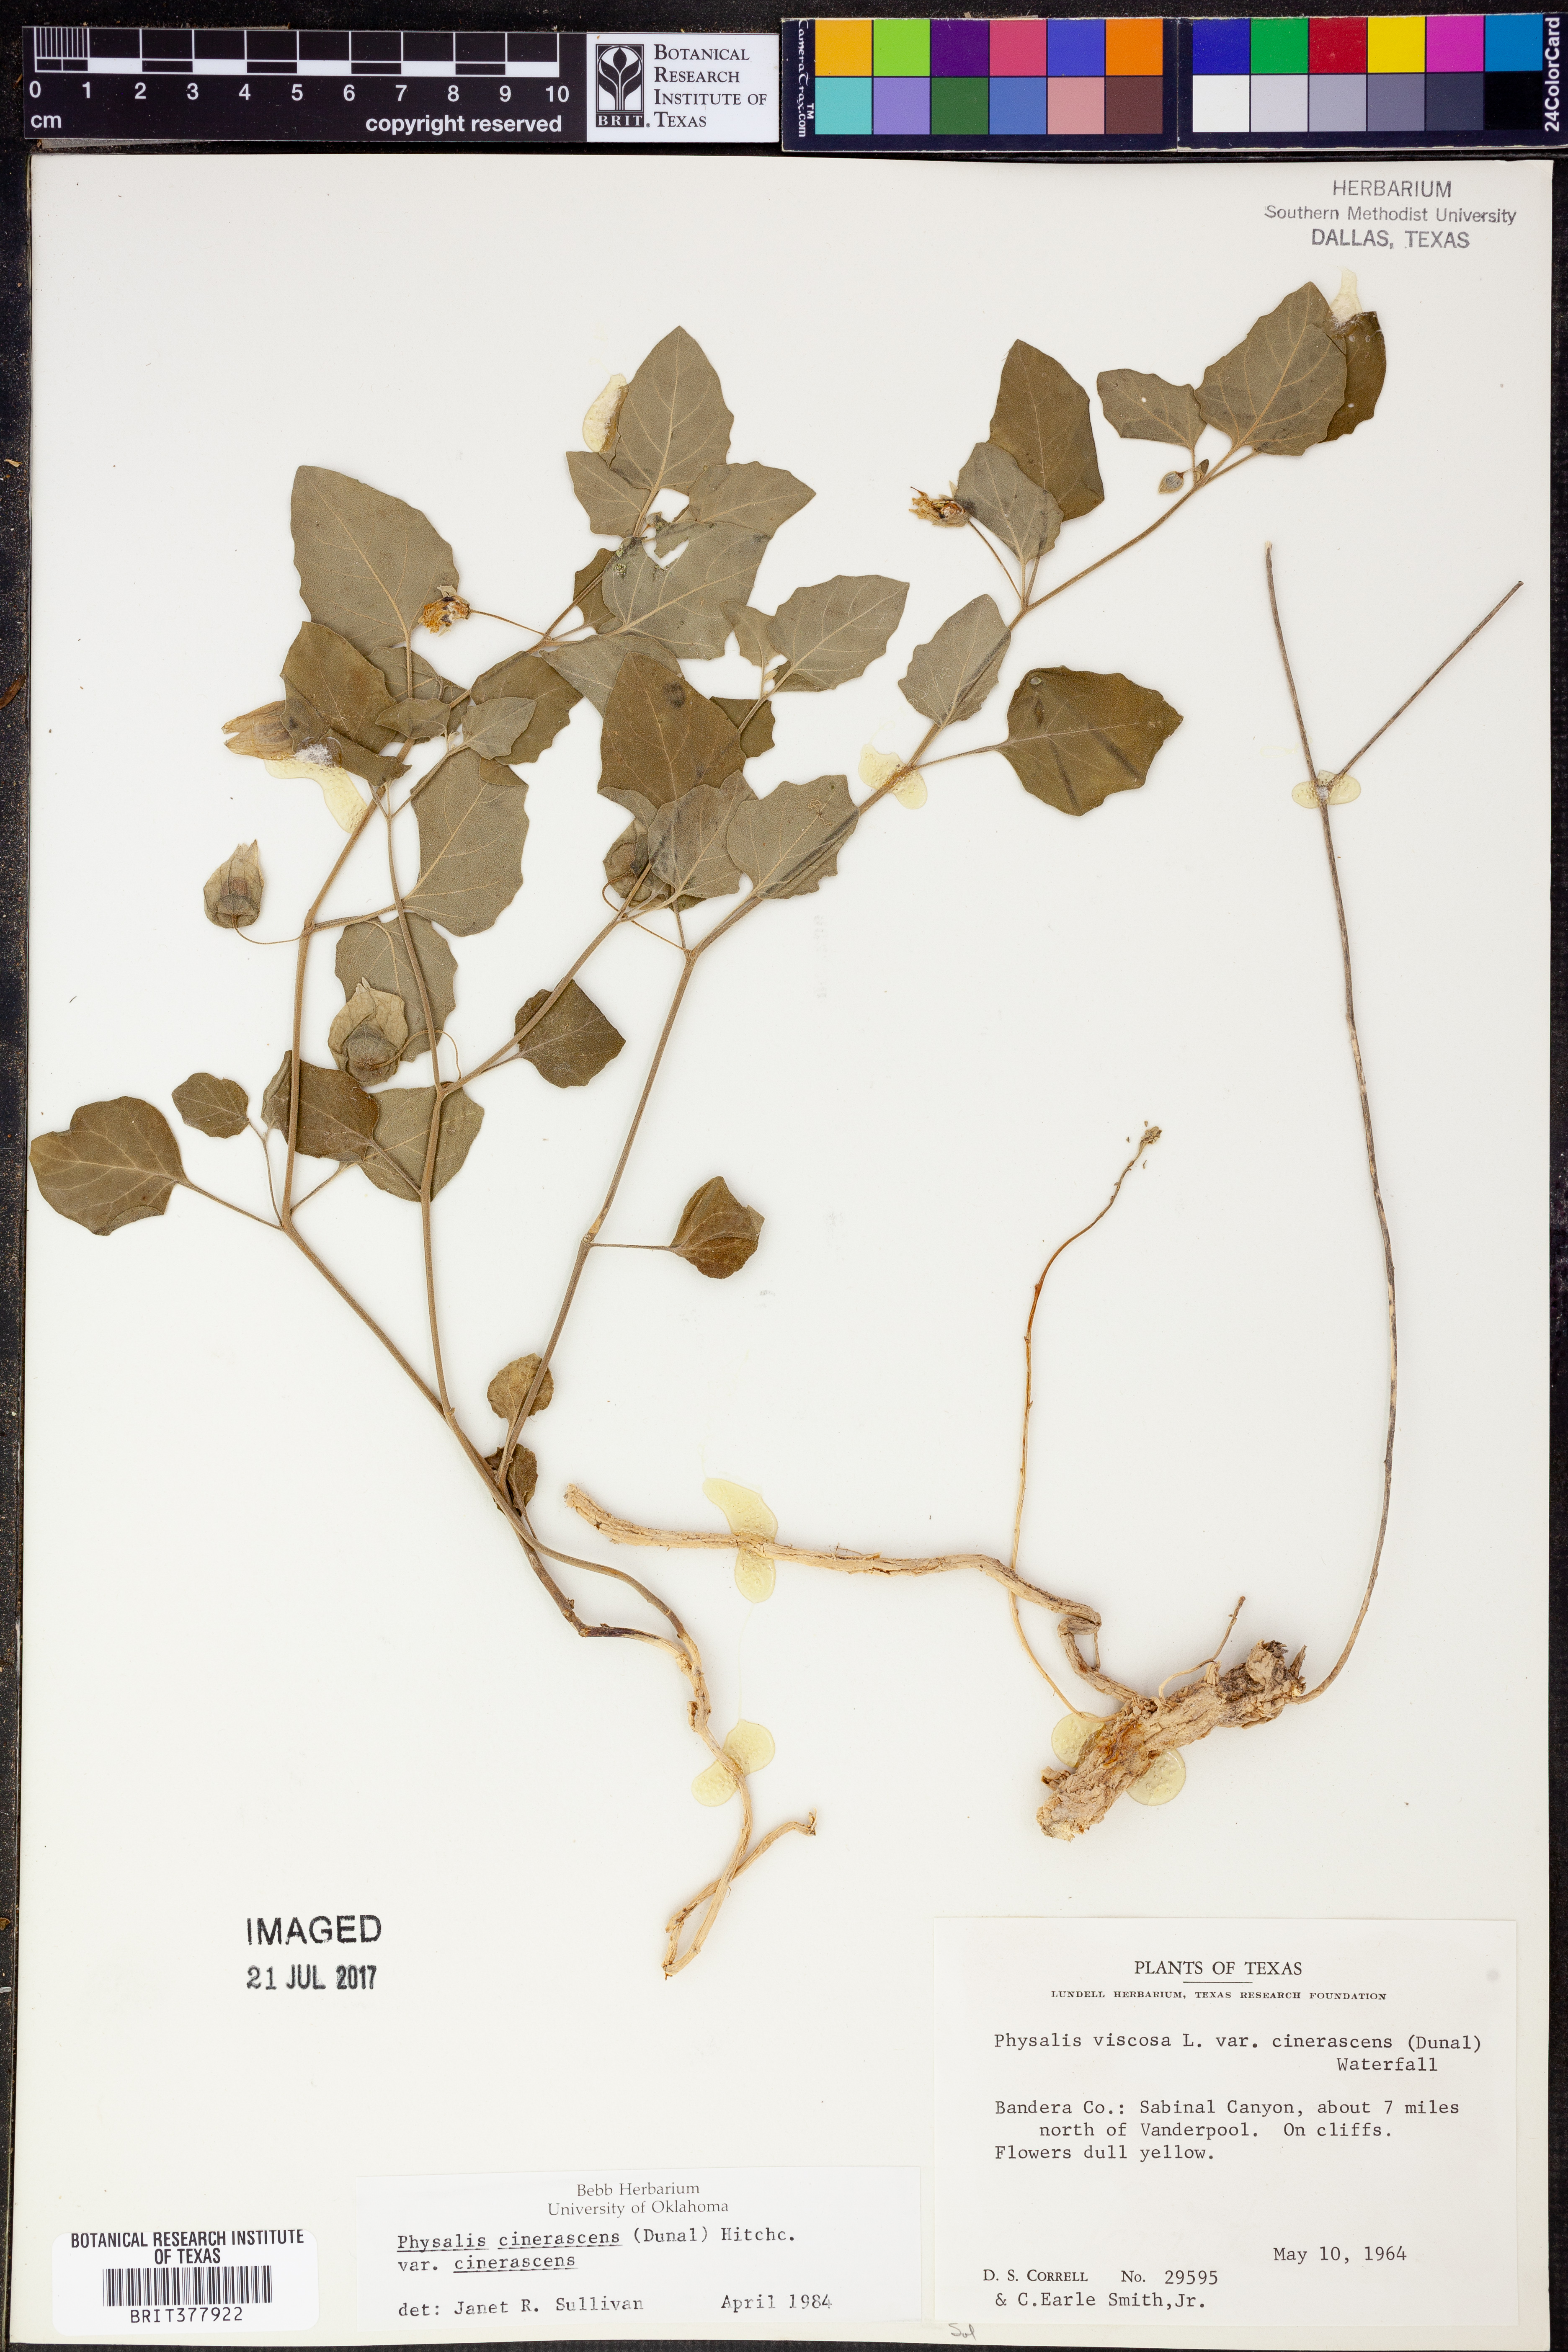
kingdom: Plantae
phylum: Tracheophyta
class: Magnoliopsida
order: Solanales
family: Solanaceae
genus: Physalis
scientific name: Physalis cinerascens
